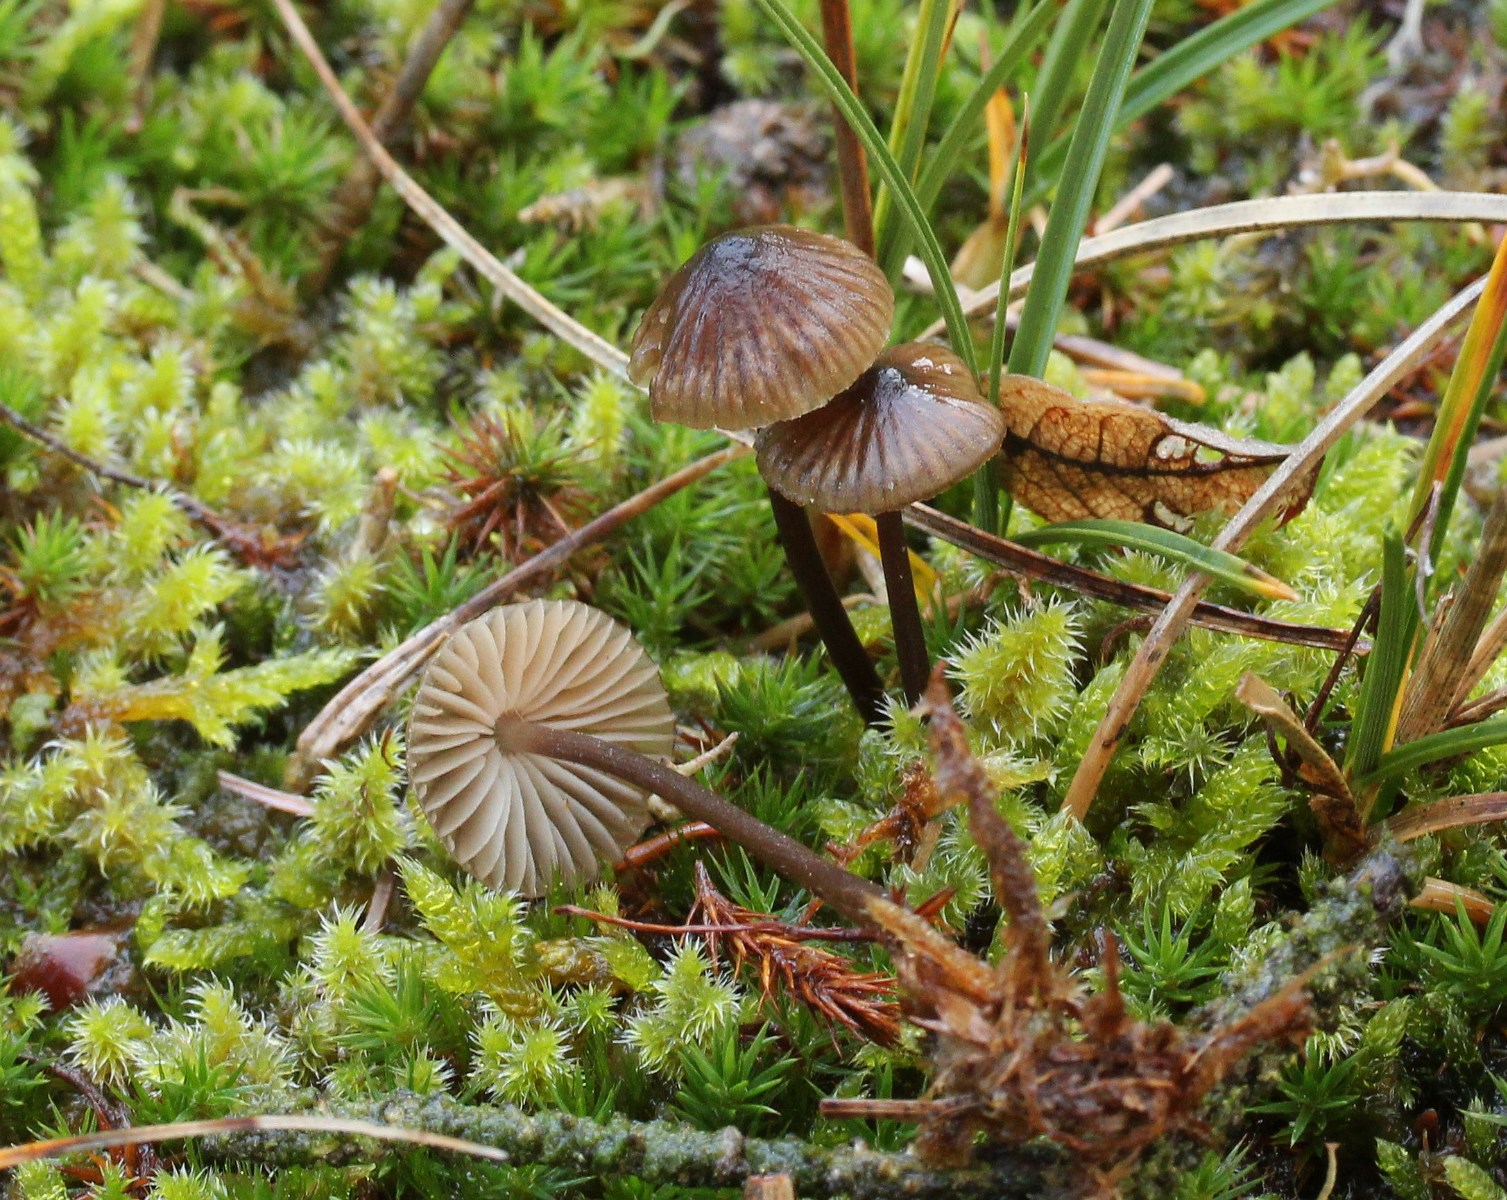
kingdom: Fungi
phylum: Basidiomycota
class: Agaricomycetes
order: Agaricales
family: Mycenaceae
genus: Mycena
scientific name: Mycena galopus
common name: hvidmælket huesvamp
